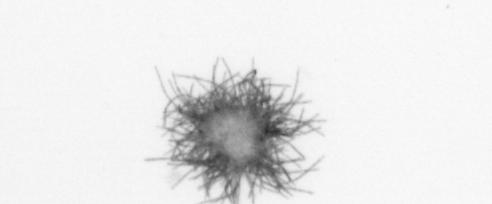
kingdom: Bacteria
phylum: Cyanobacteria
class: Cyanobacteriia
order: Cyanobacteriales
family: Microcoleaceae
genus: Trichodesmium
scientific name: Trichodesmium
